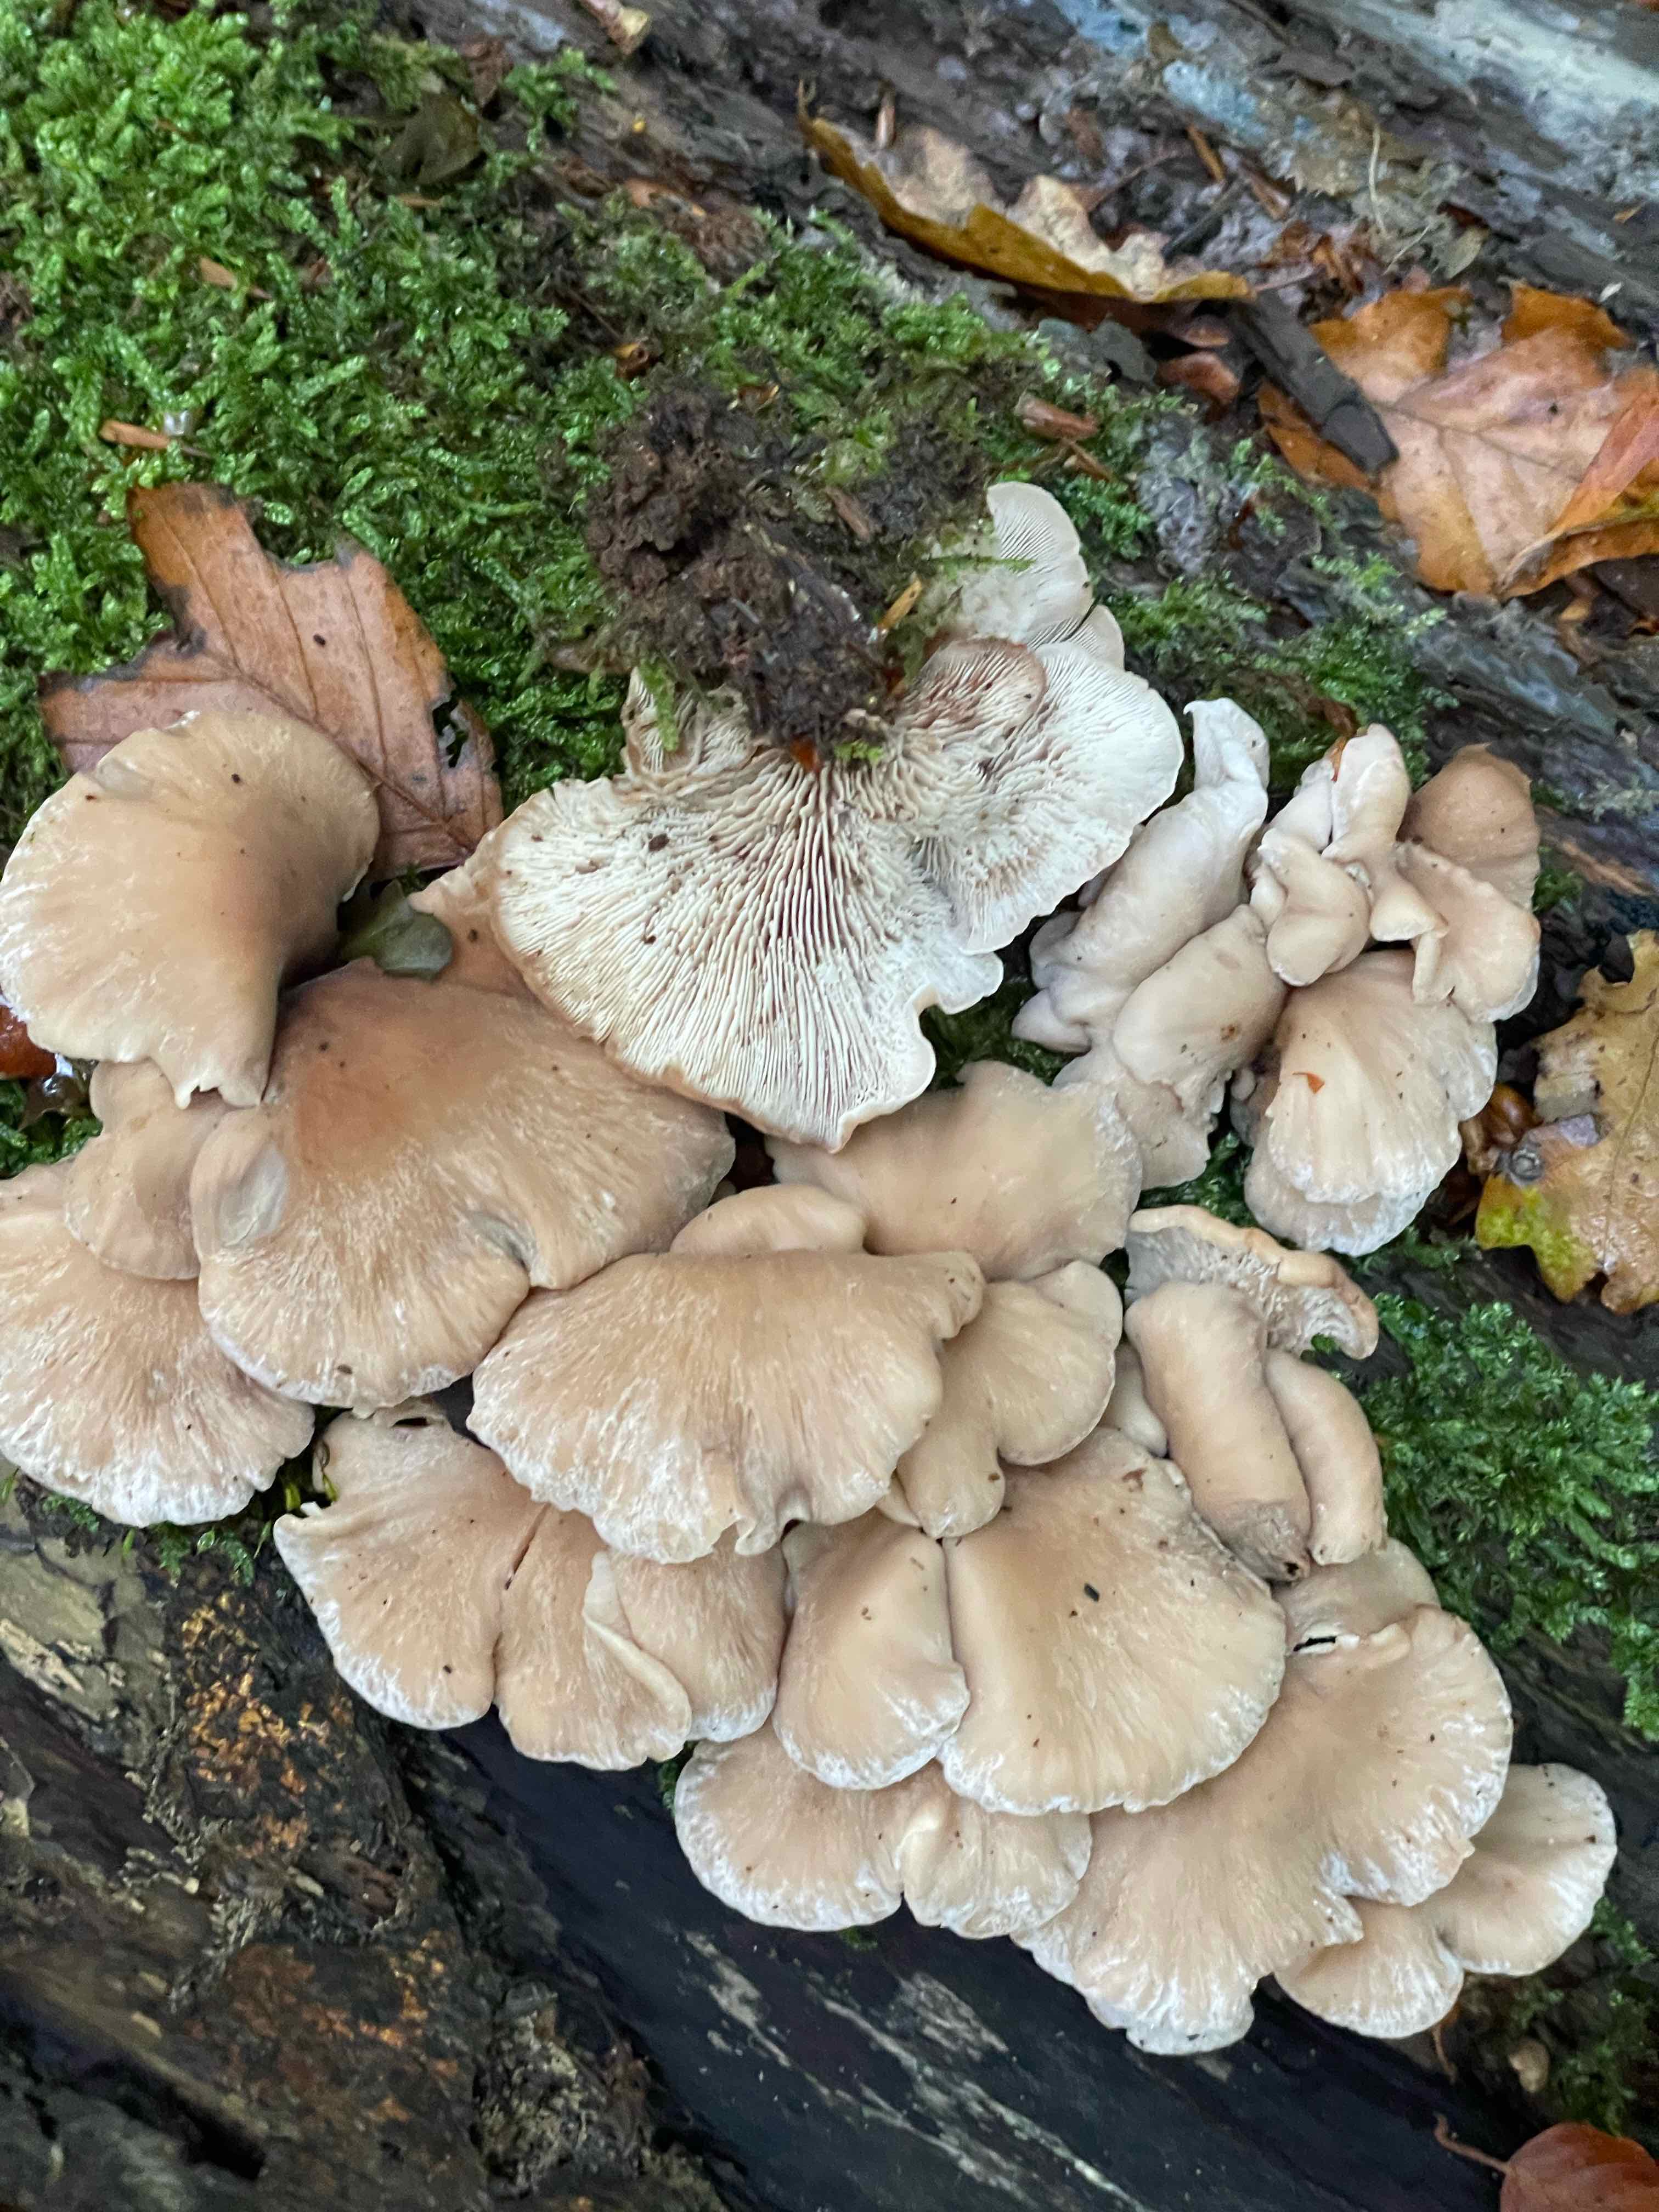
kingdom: Fungi
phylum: Basidiomycota
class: Agaricomycetes
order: Russulales
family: Auriscalpiaceae
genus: Lentinellus
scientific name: Lentinellus ursinus
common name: børstehåret savbladhat
